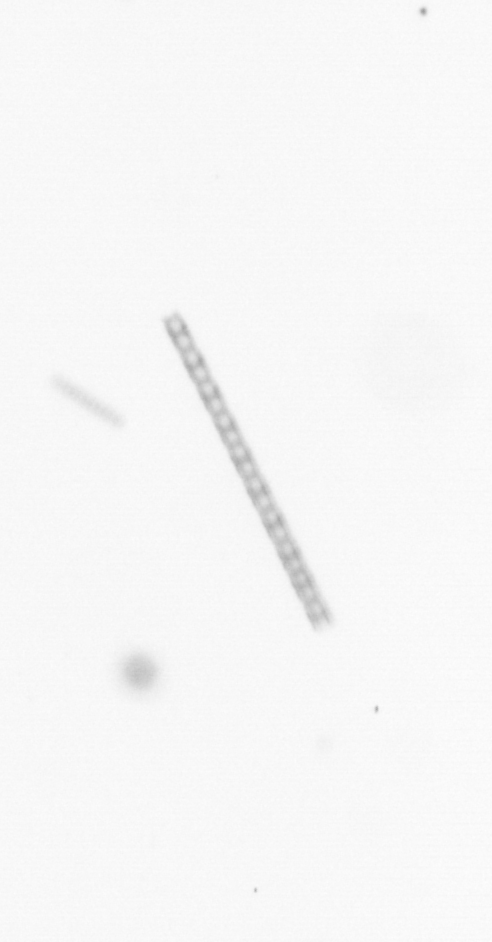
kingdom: Chromista
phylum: Ochrophyta
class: Bacillariophyceae
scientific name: Bacillariophyceae
